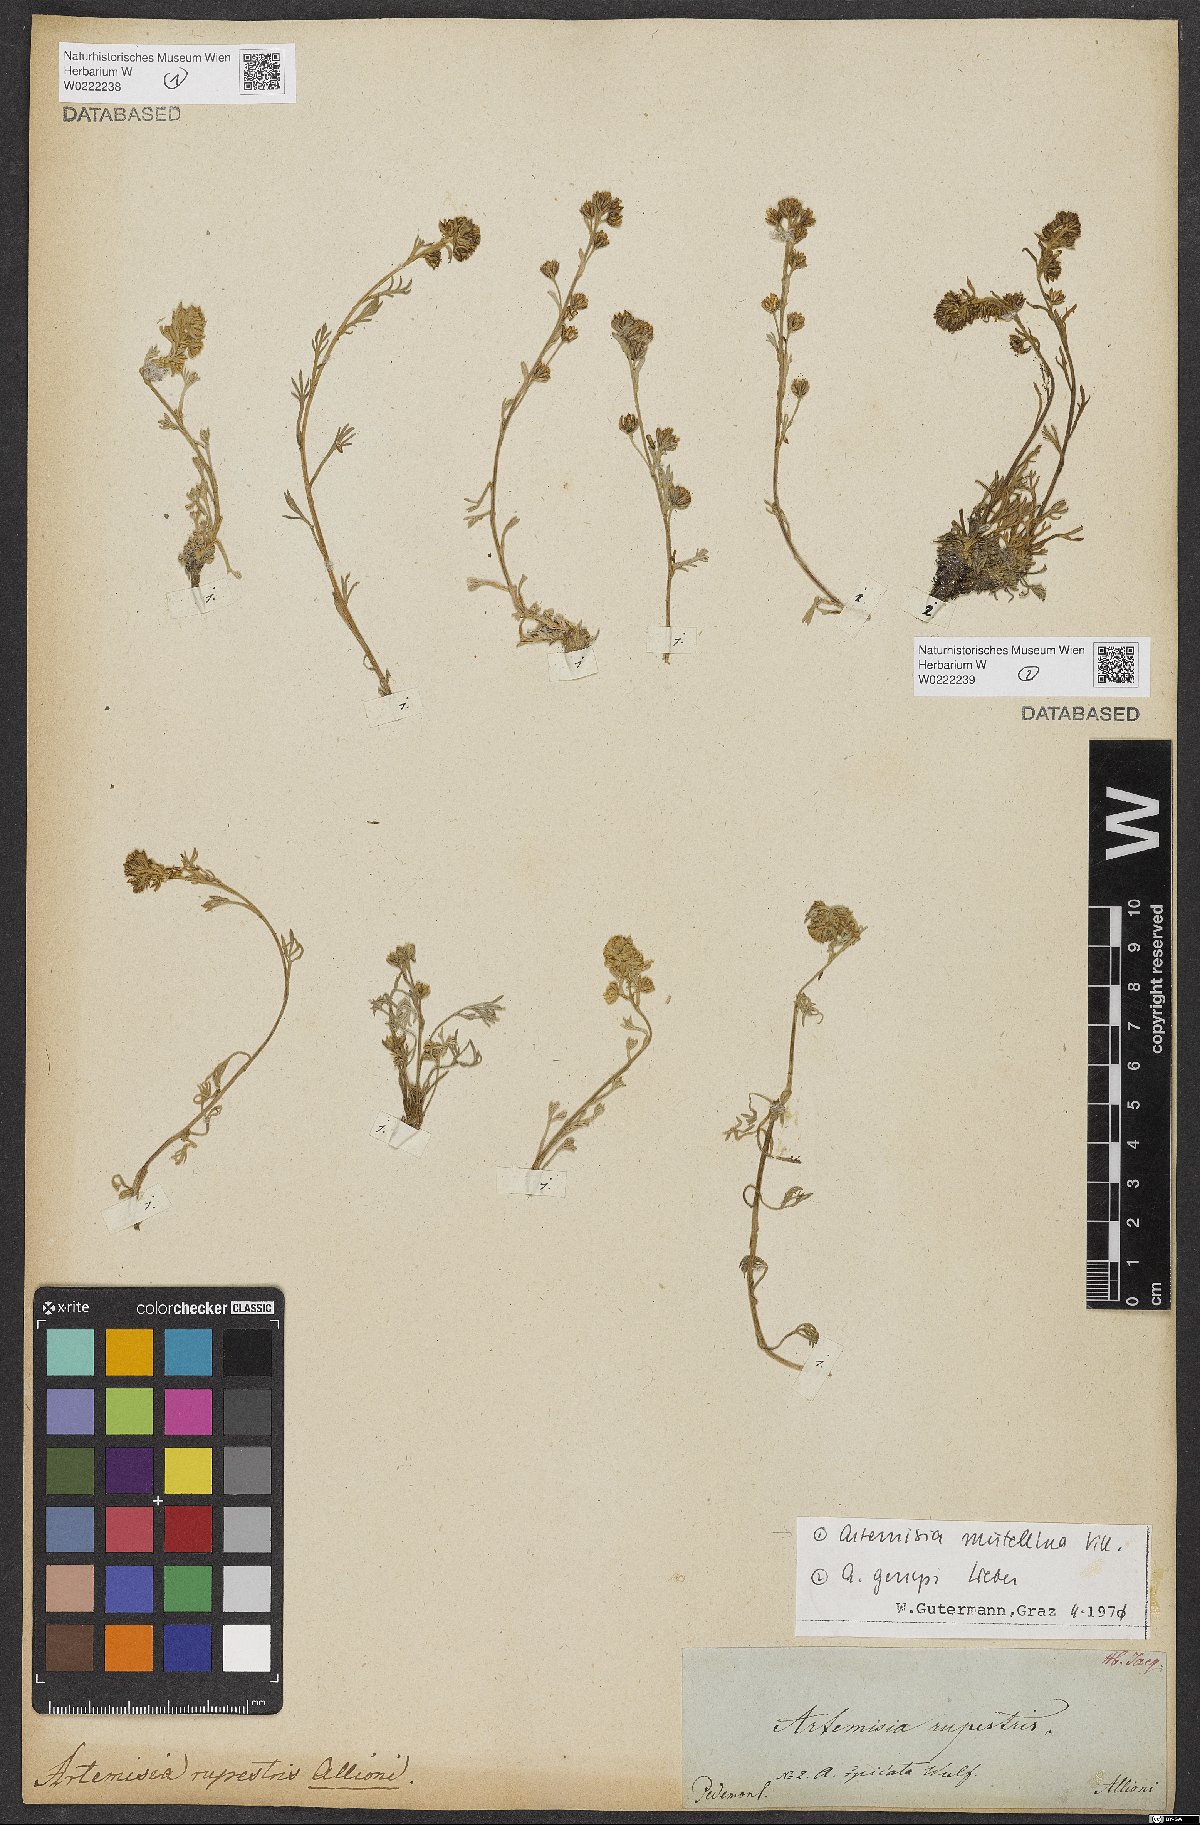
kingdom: Plantae
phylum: Tracheophyta
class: Magnoliopsida
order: Asterales
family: Asteraceae
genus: Artemisia
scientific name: Artemisia mutellina
